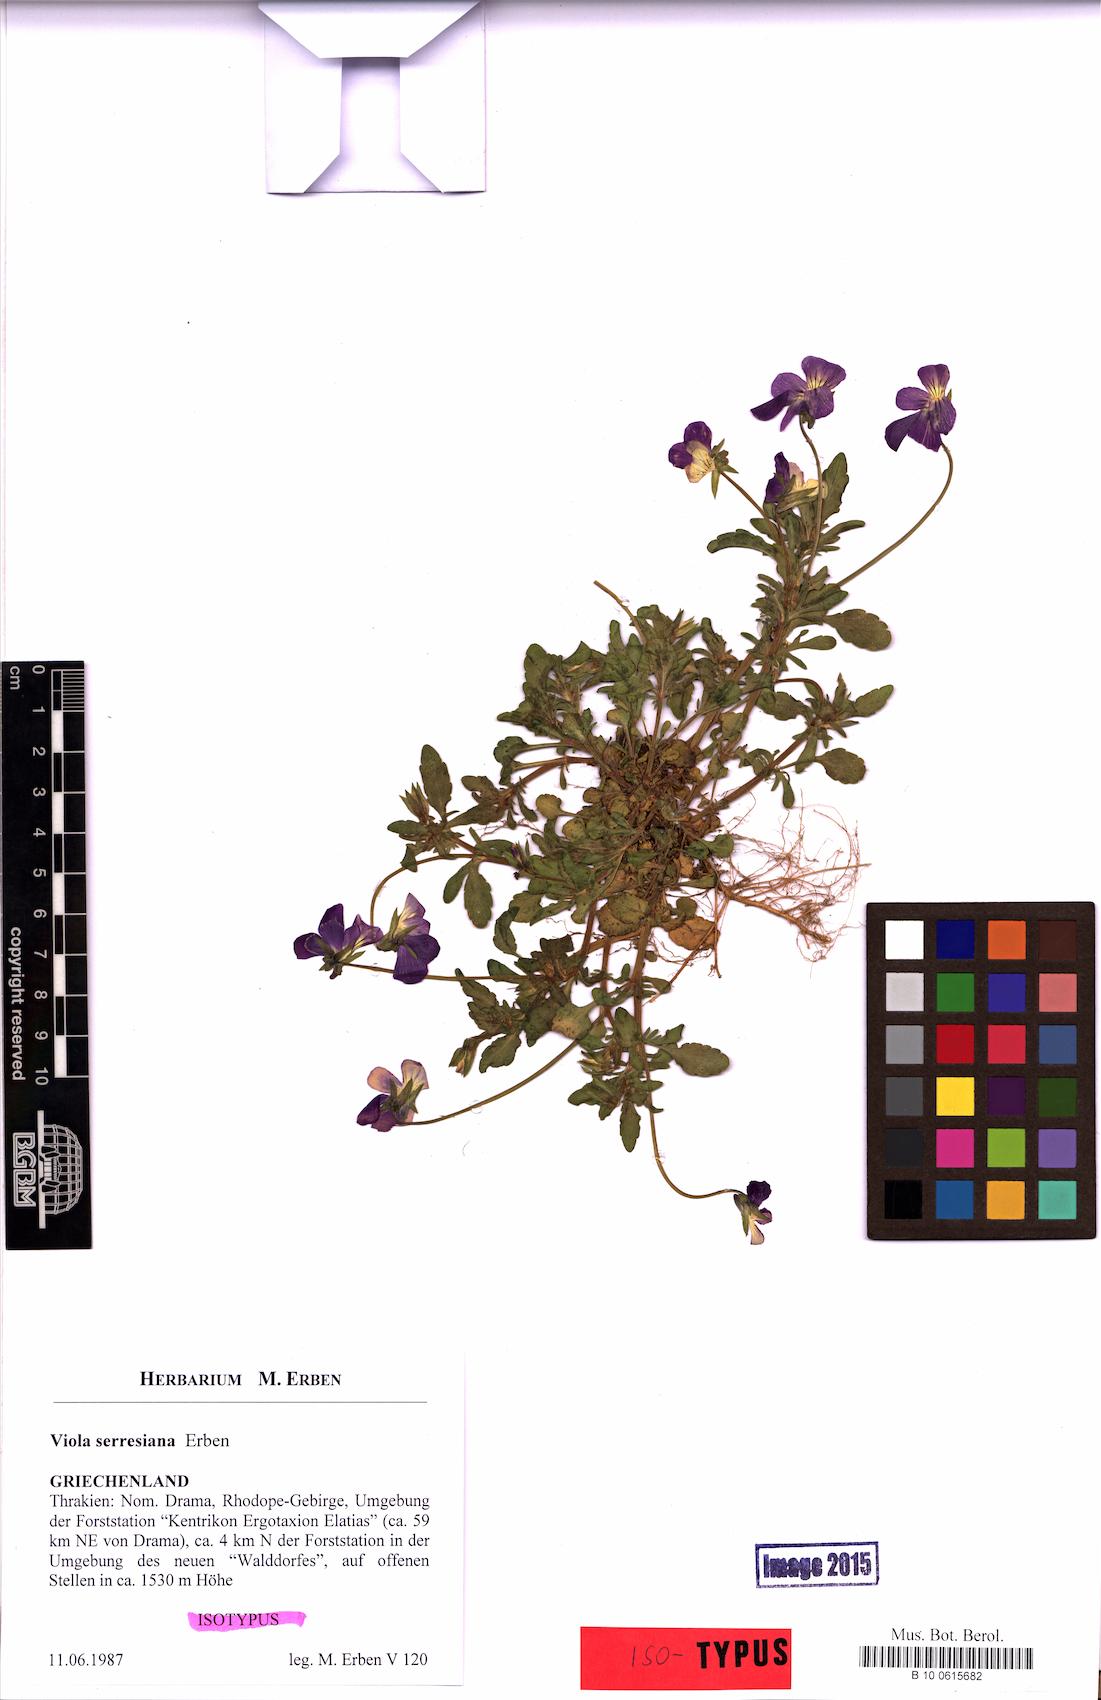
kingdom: Plantae
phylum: Tracheophyta
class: Magnoliopsida
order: Malpighiales
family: Violaceae
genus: Viola
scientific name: Viola serresiana
